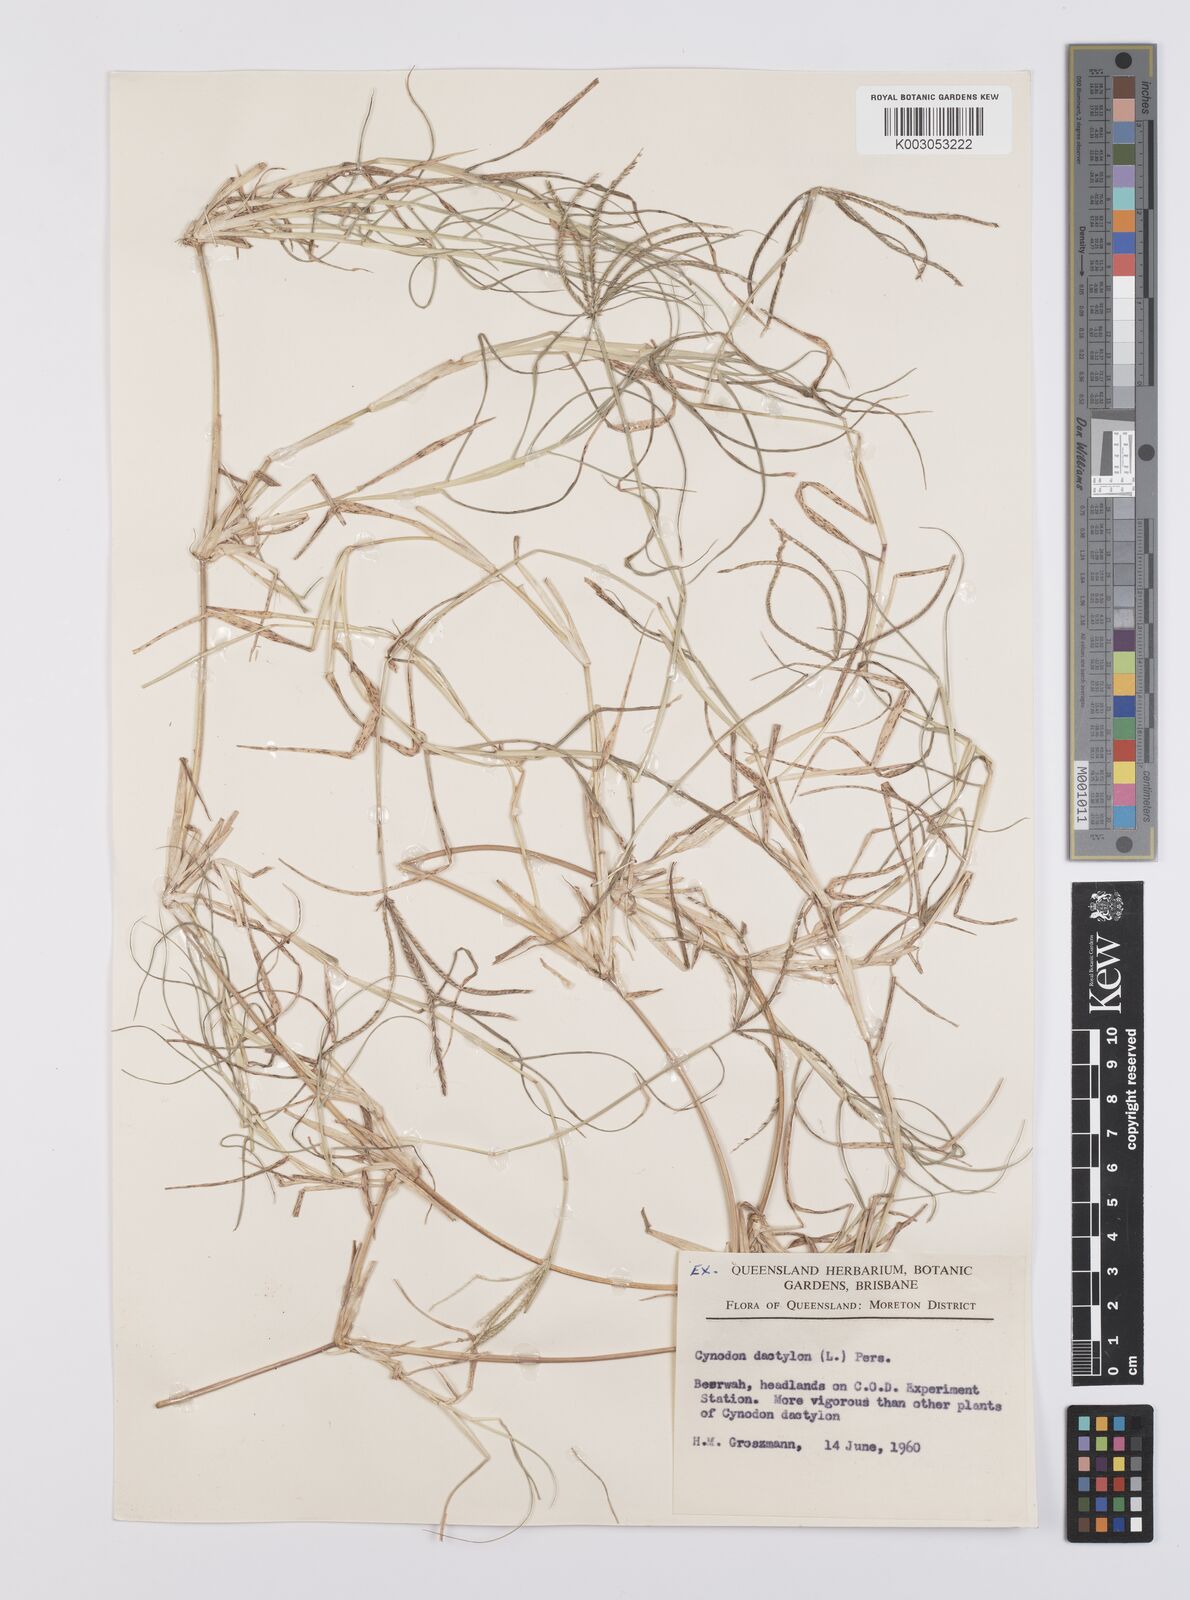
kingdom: Plantae
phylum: Tracheophyta
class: Liliopsida
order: Poales
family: Poaceae
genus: Cynodon
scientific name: Cynodon dactylon
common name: Bermuda grass
